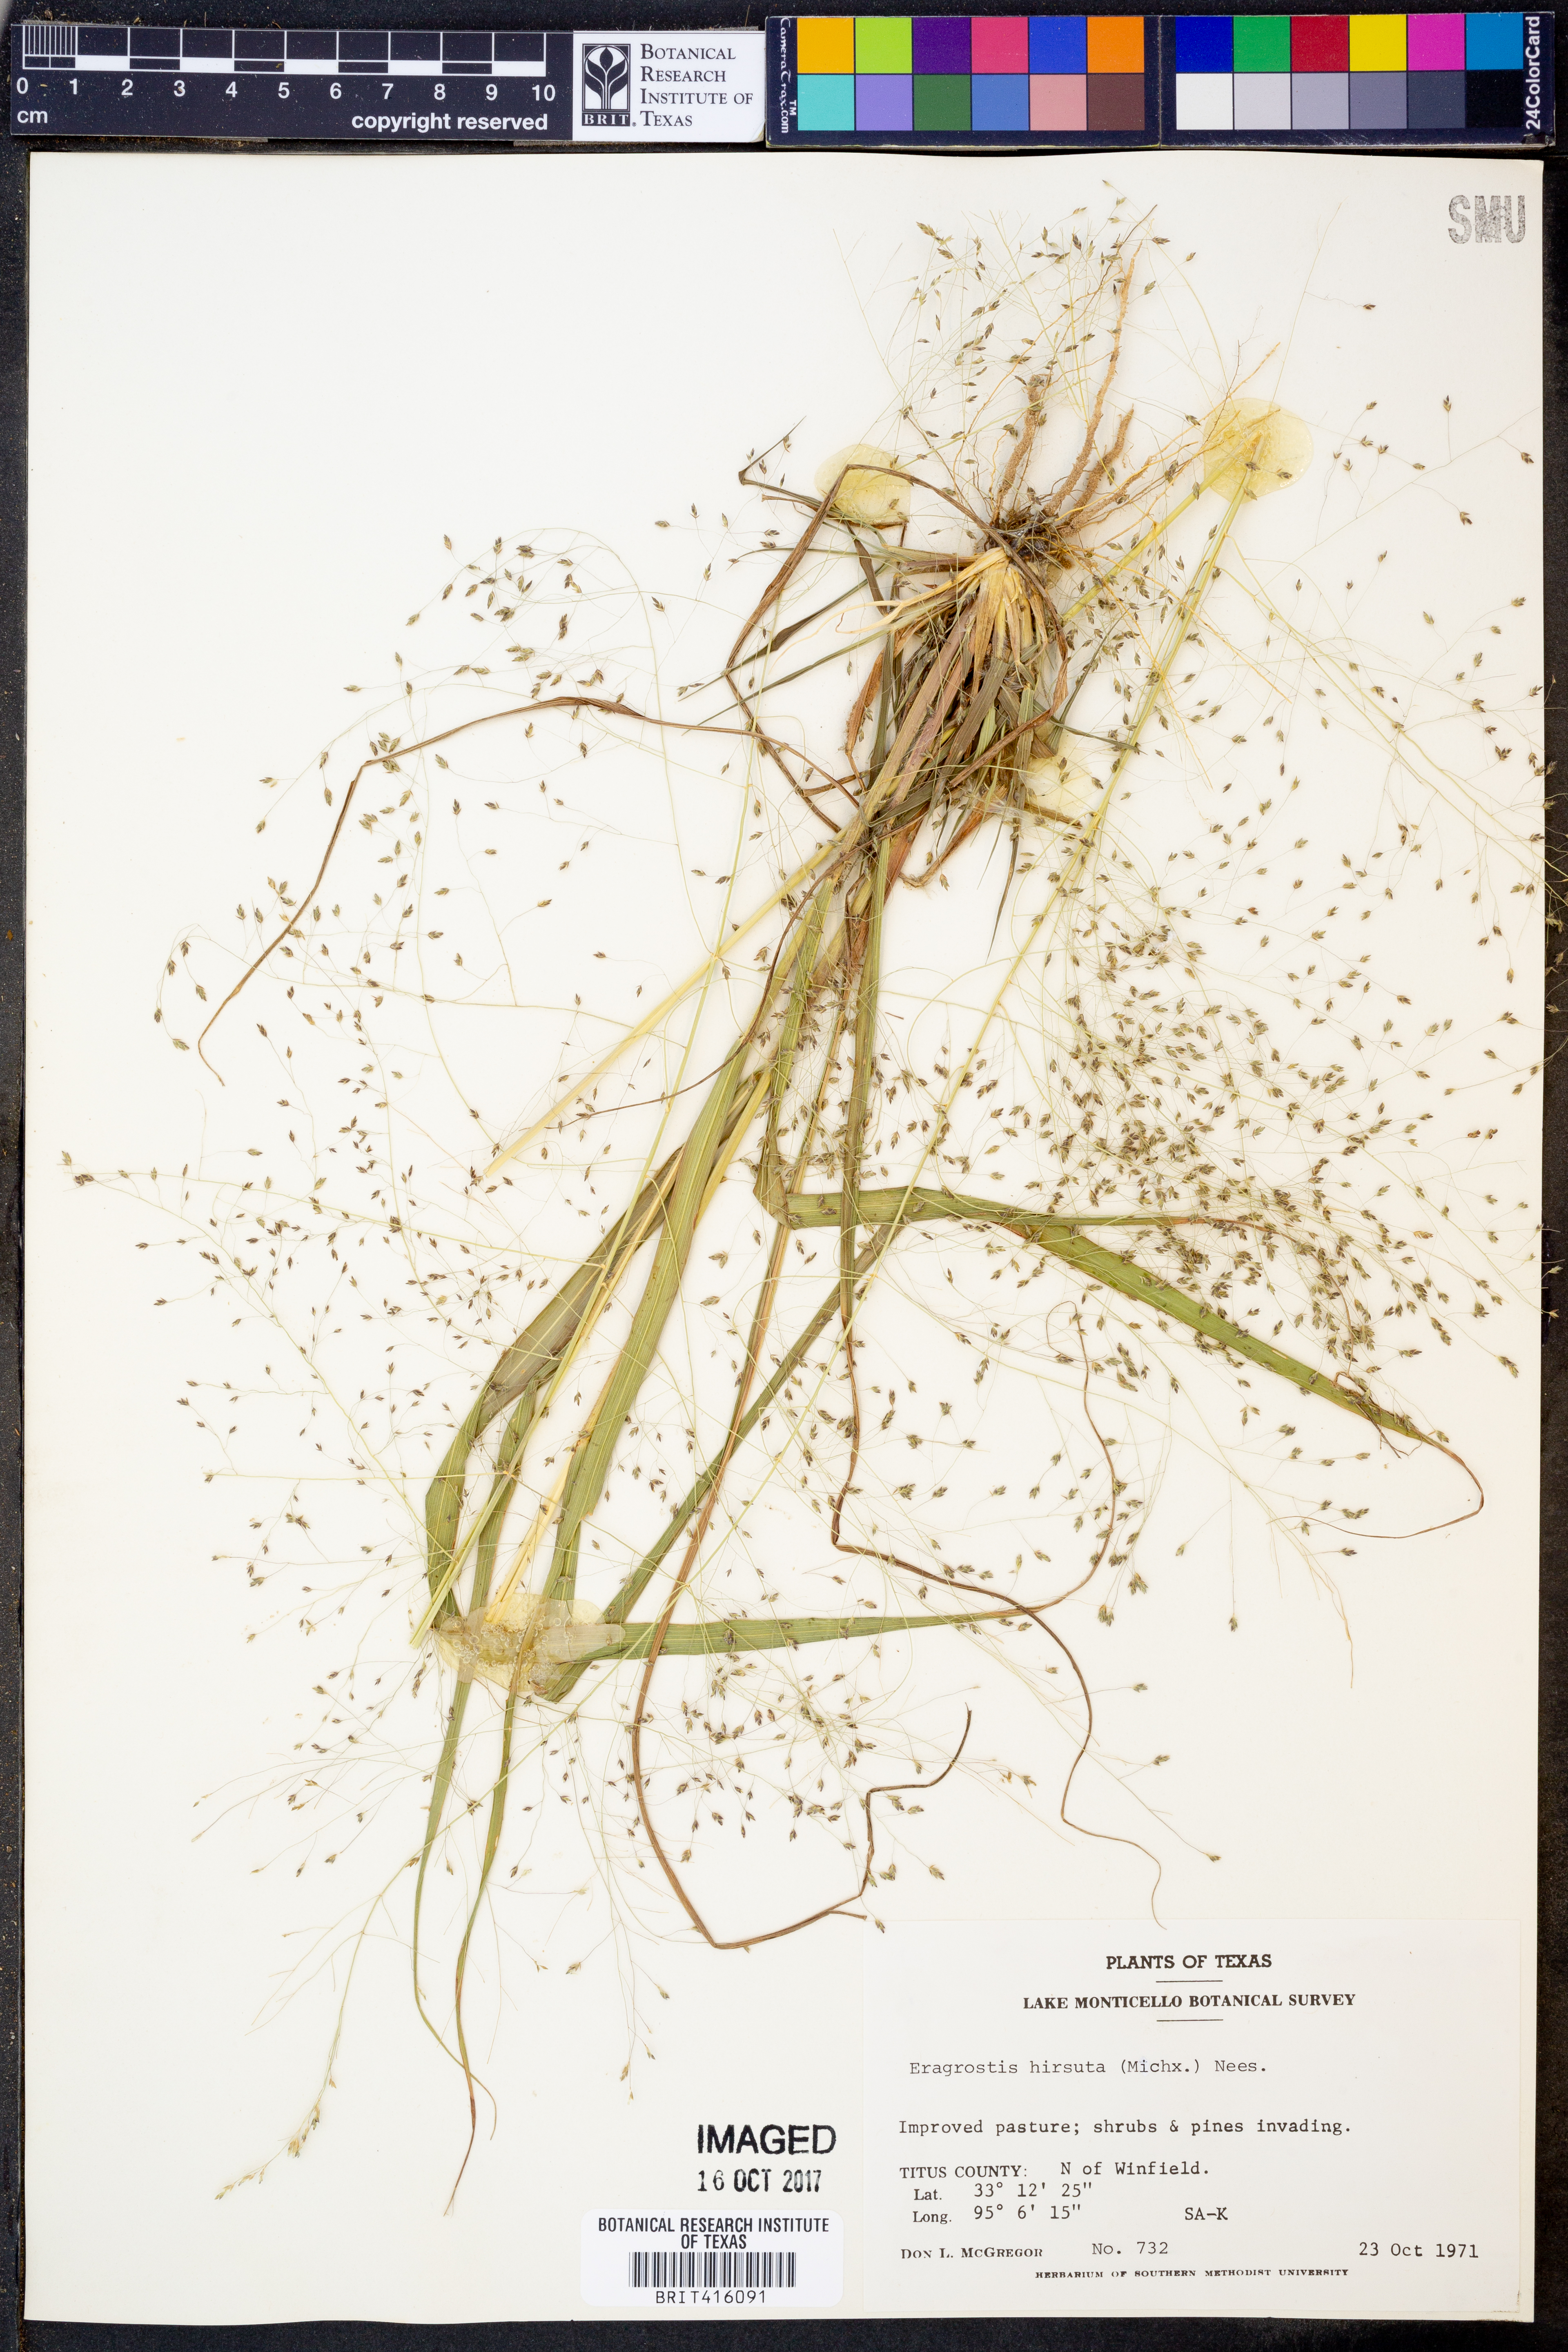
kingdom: Plantae
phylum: Tracheophyta
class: Liliopsida
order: Poales
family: Poaceae
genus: Eragrostis
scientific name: Eragrostis hirsuta
